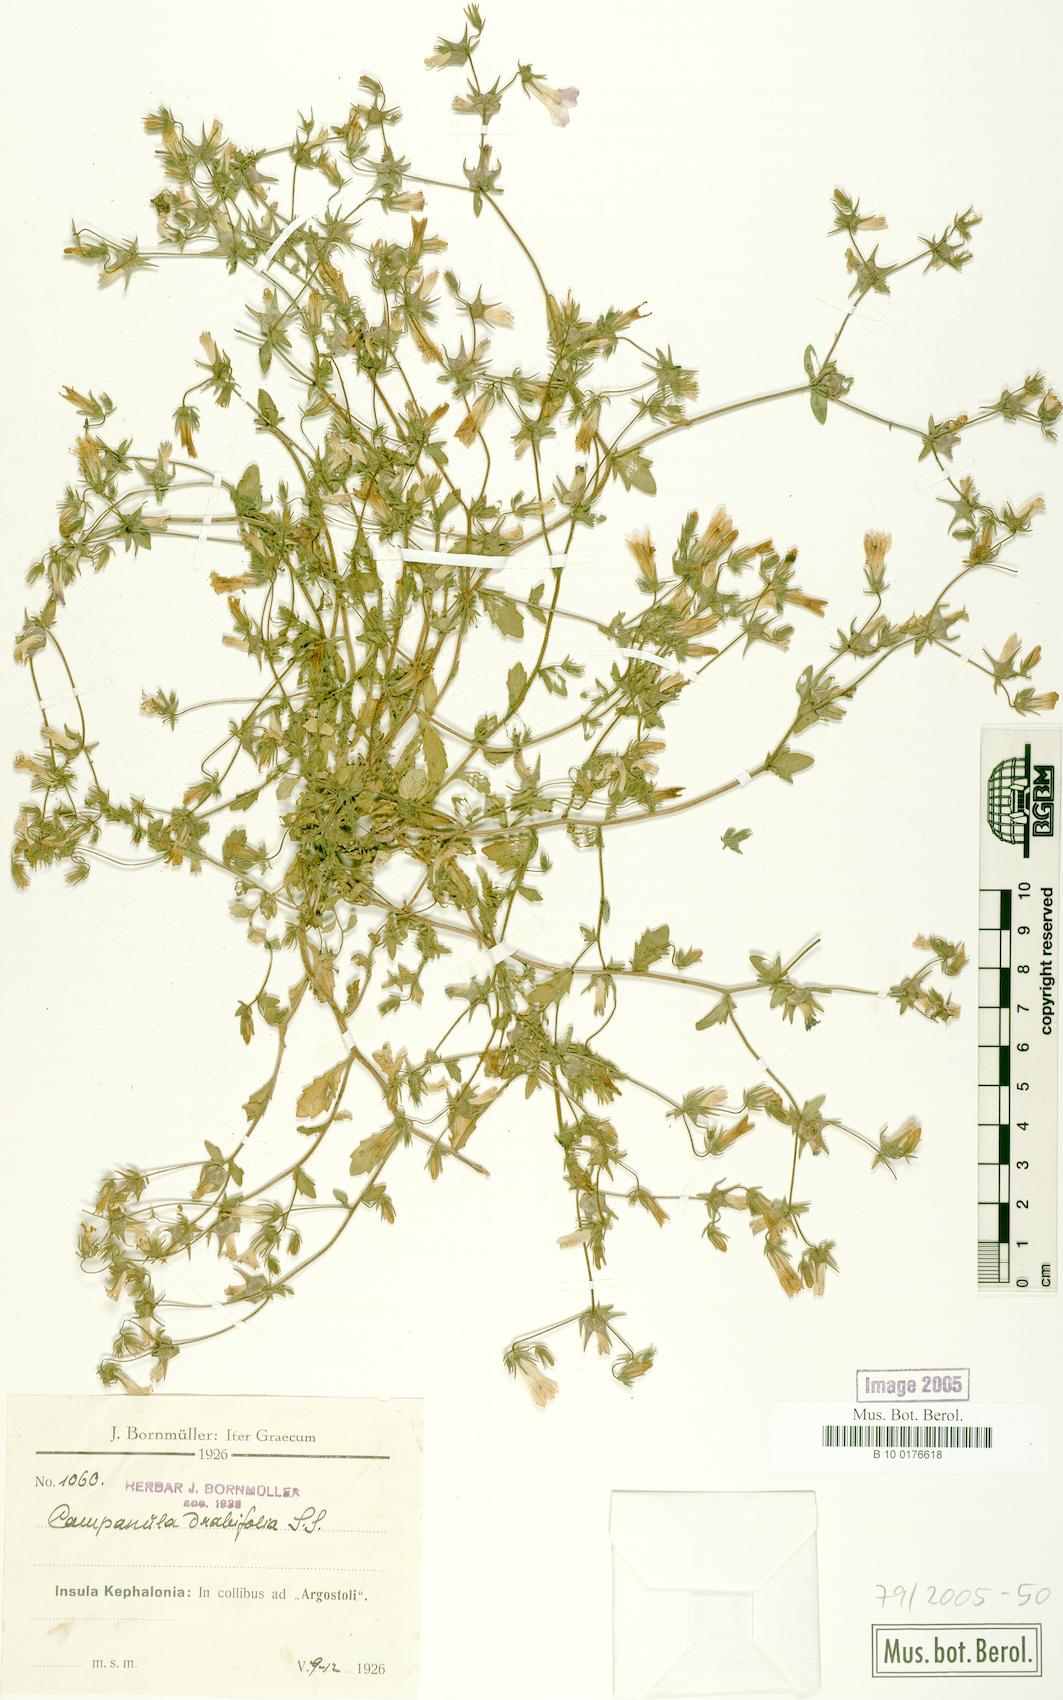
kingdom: Plantae
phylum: Tracheophyta
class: Magnoliopsida
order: Asterales
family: Campanulaceae
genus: Campanula
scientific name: Campanula drabifolia
